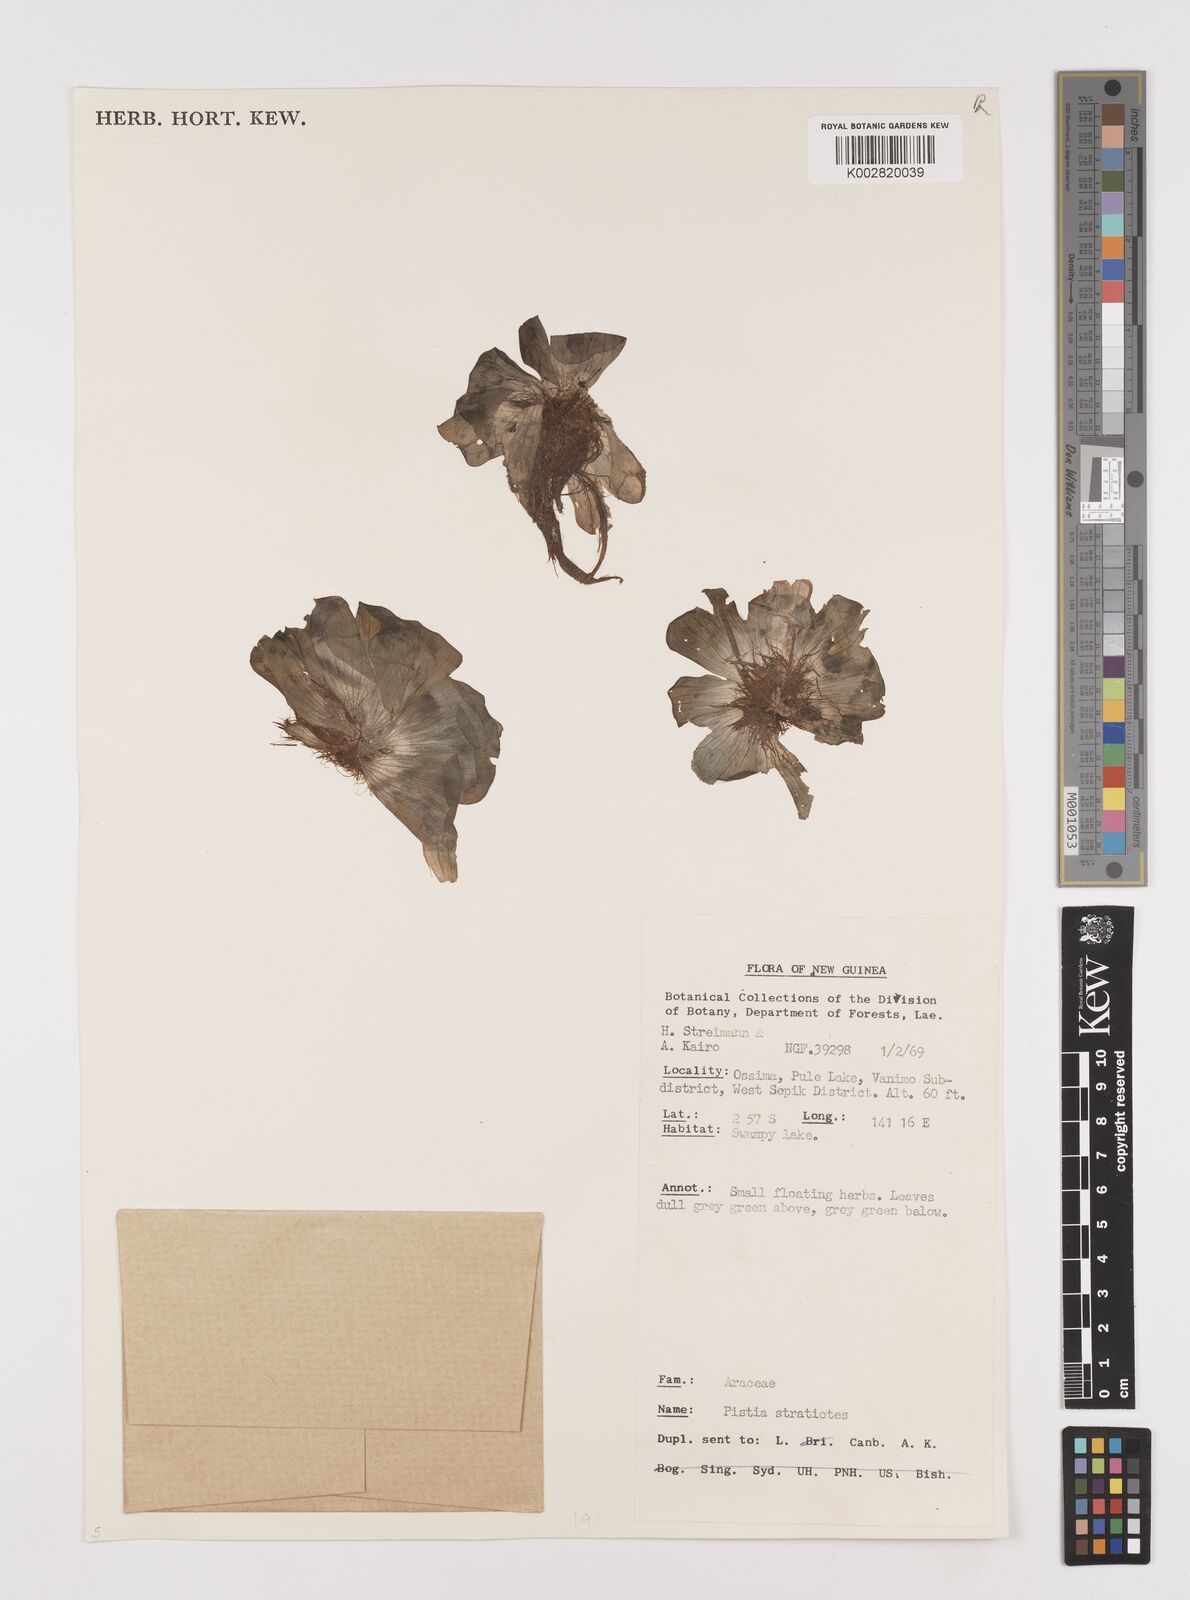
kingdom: Plantae
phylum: Tracheophyta
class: Liliopsida
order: Alismatales
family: Araceae
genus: Pistia
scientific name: Pistia stratiotes
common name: Water lettuce
